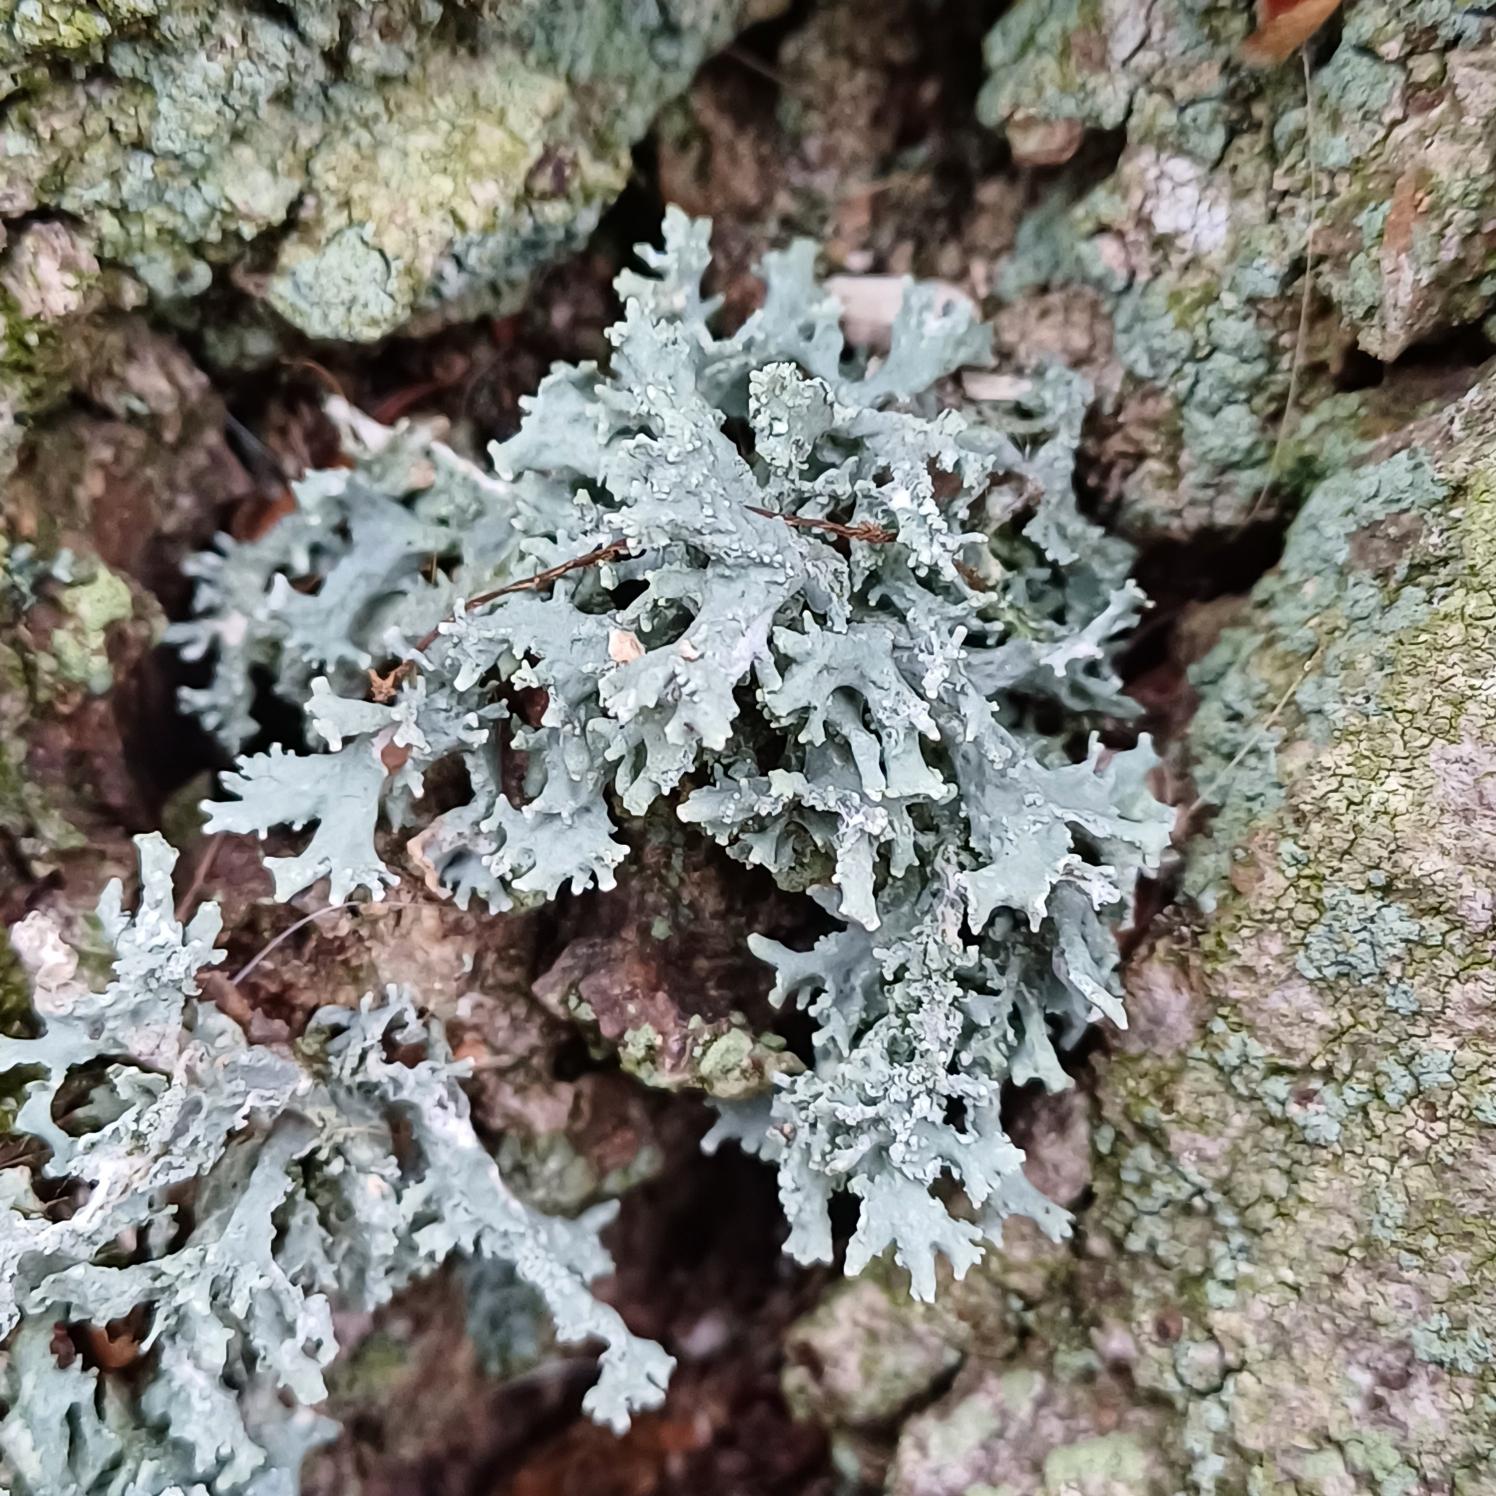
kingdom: Fungi
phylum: Ascomycota
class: Lecanoromycetes
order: Lecanorales
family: Parmeliaceae
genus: Evernia
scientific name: Evernia prunastri
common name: Almindelig slåenlav
